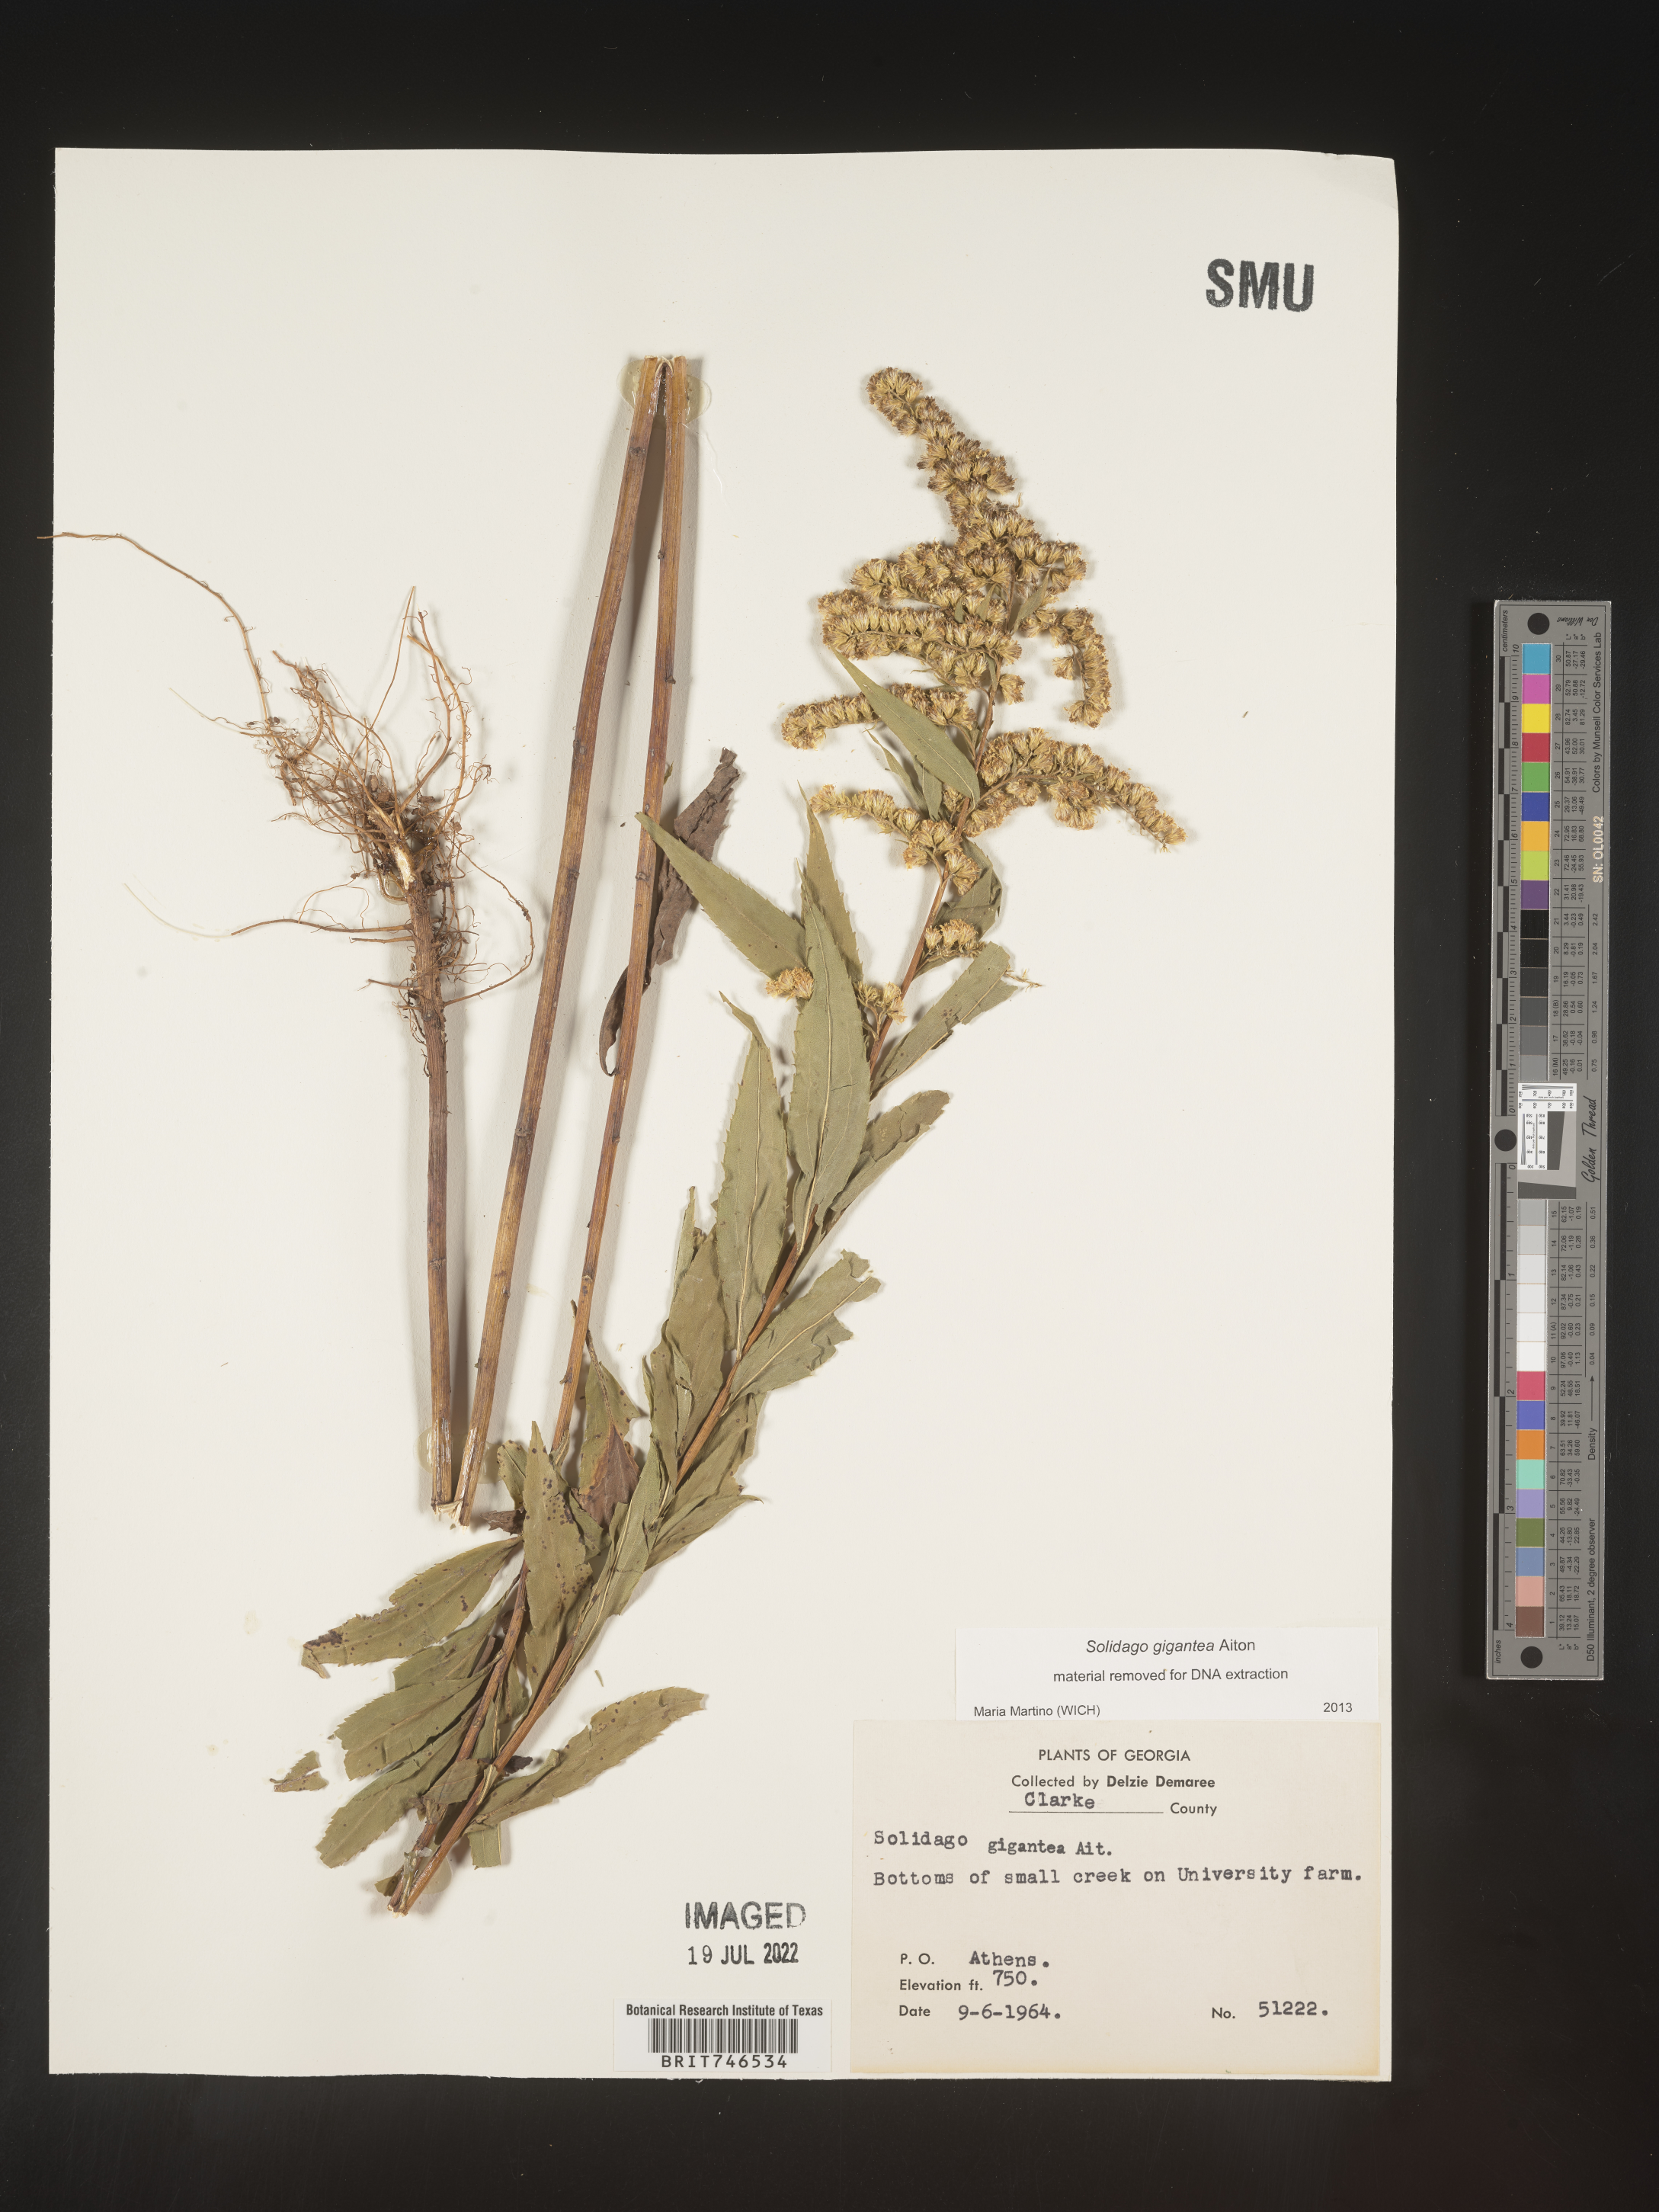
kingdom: Plantae
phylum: Tracheophyta
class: Magnoliopsida
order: Asterales
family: Asteraceae
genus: Solidago
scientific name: Solidago gigantea
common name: Giant goldenrod
